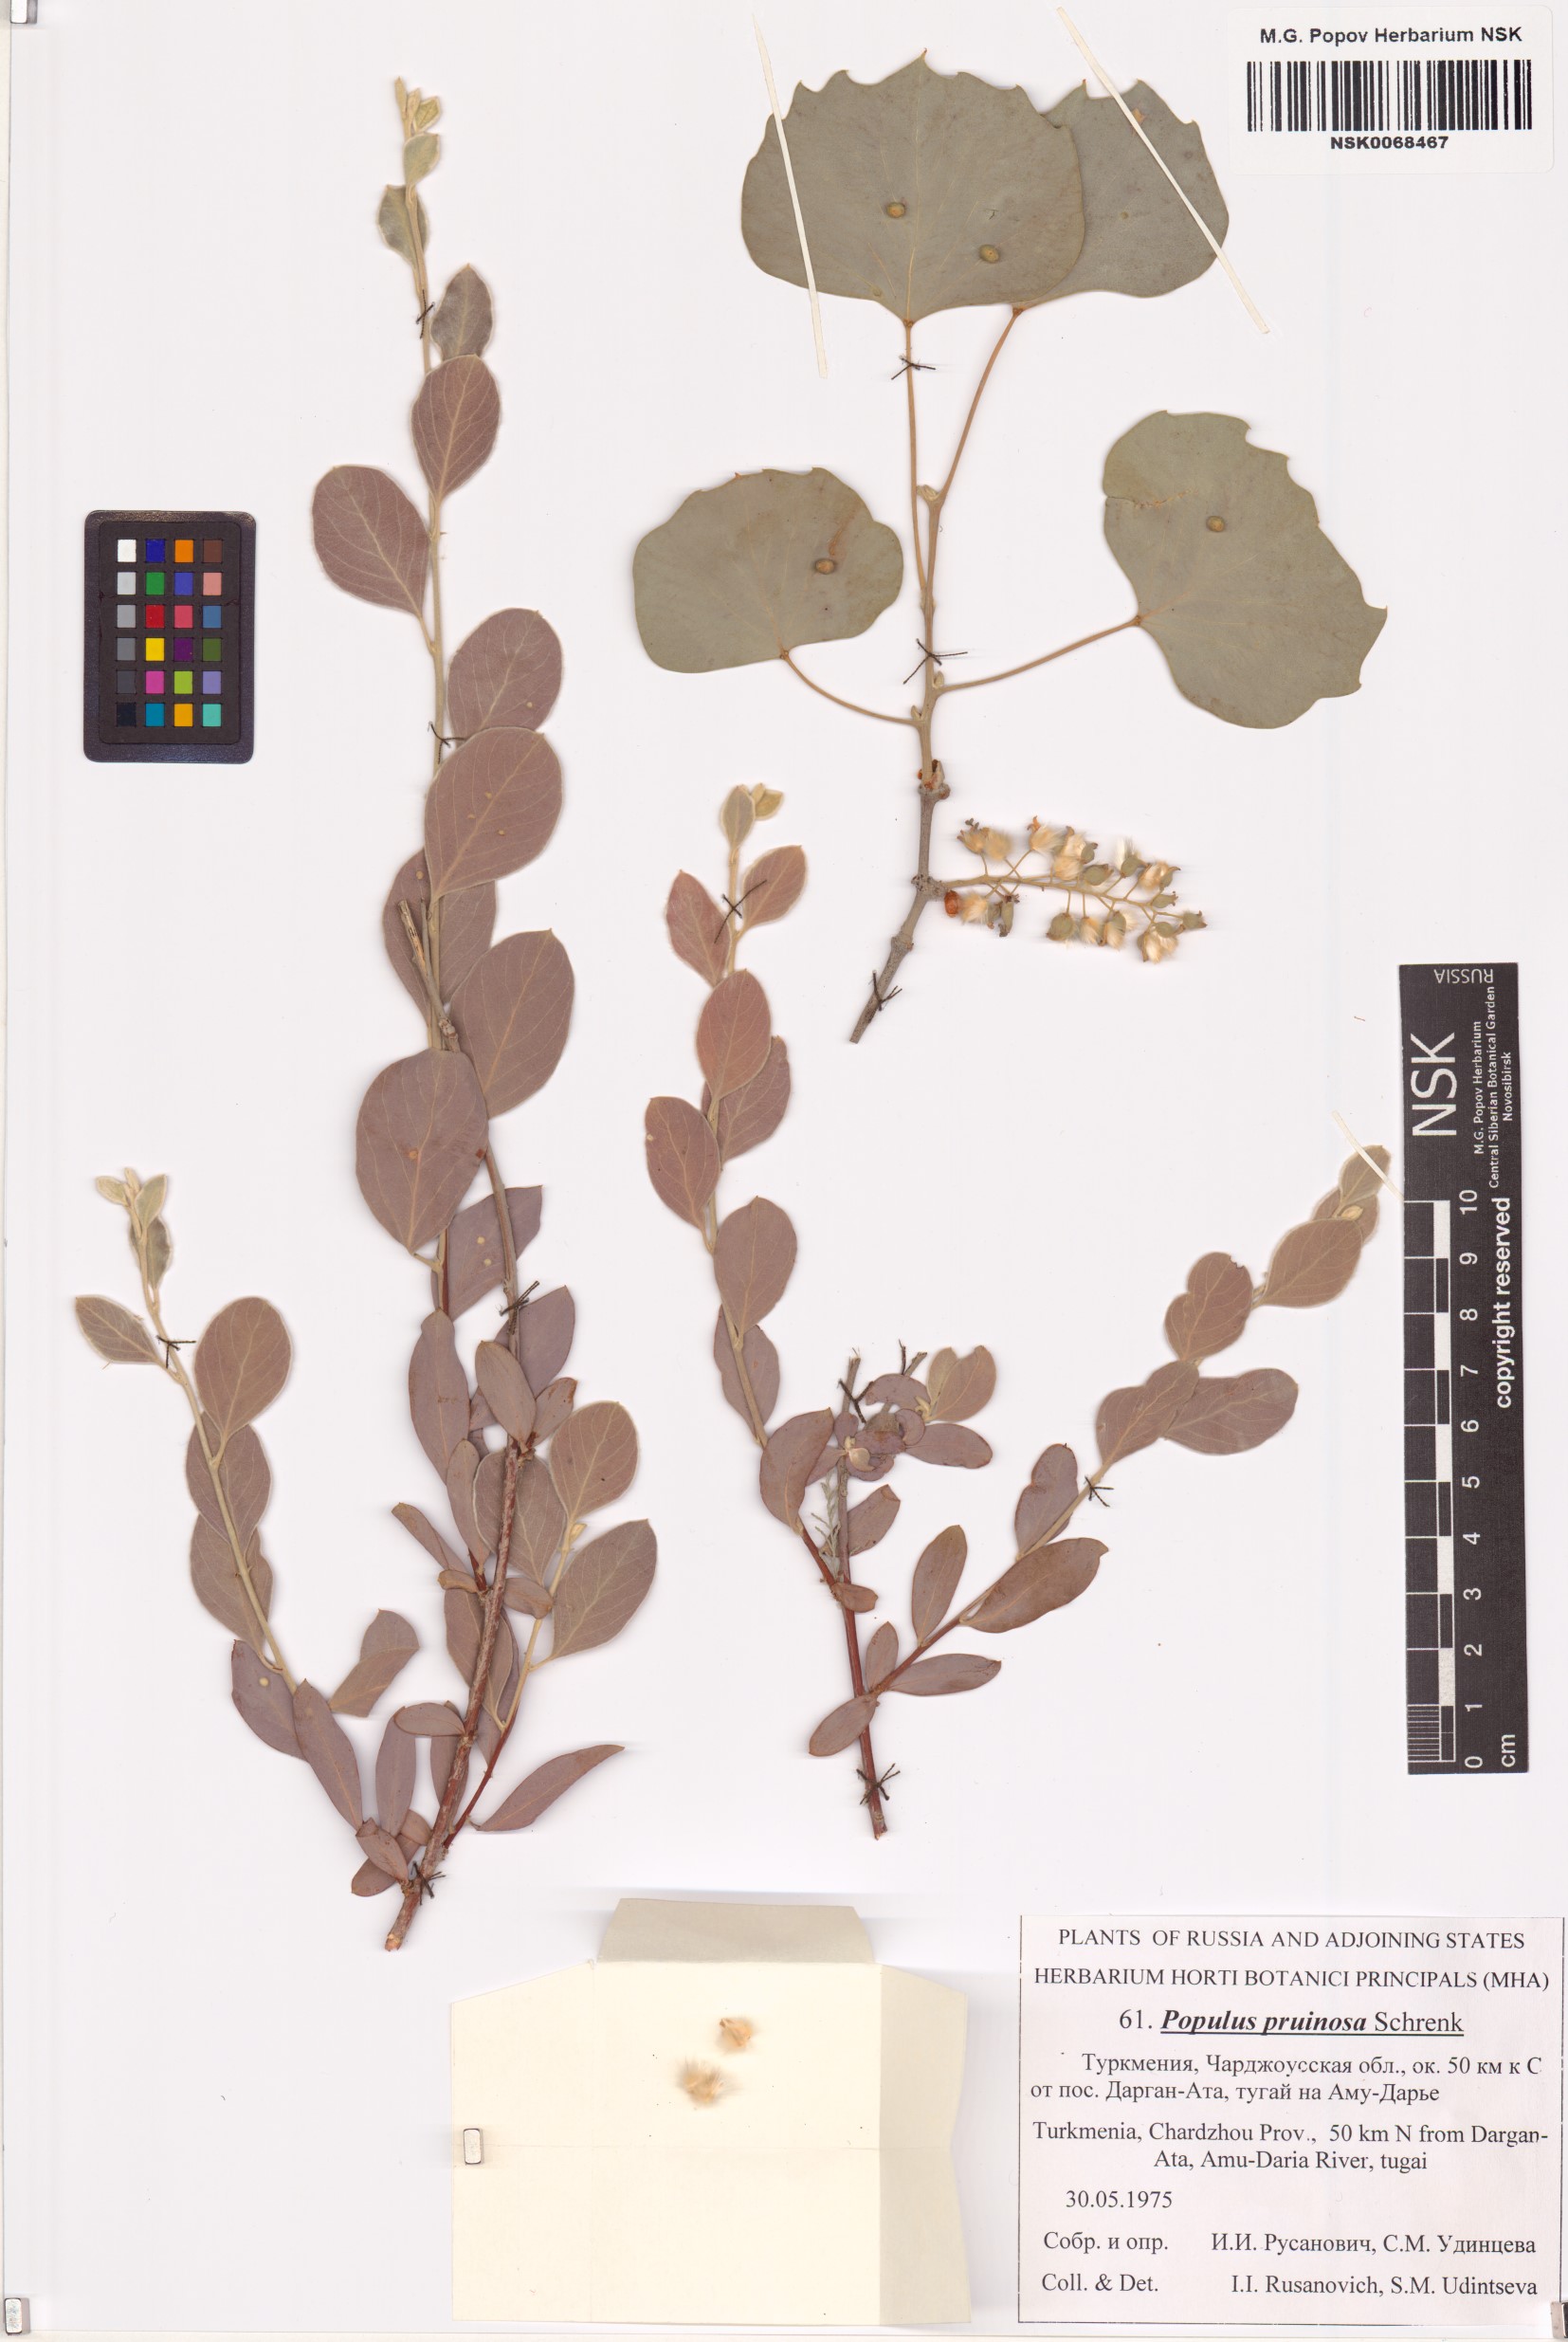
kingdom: Plantae
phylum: Tracheophyta
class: Magnoliopsida
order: Malpighiales
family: Salicaceae
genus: Populus
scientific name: Populus pruinosa
